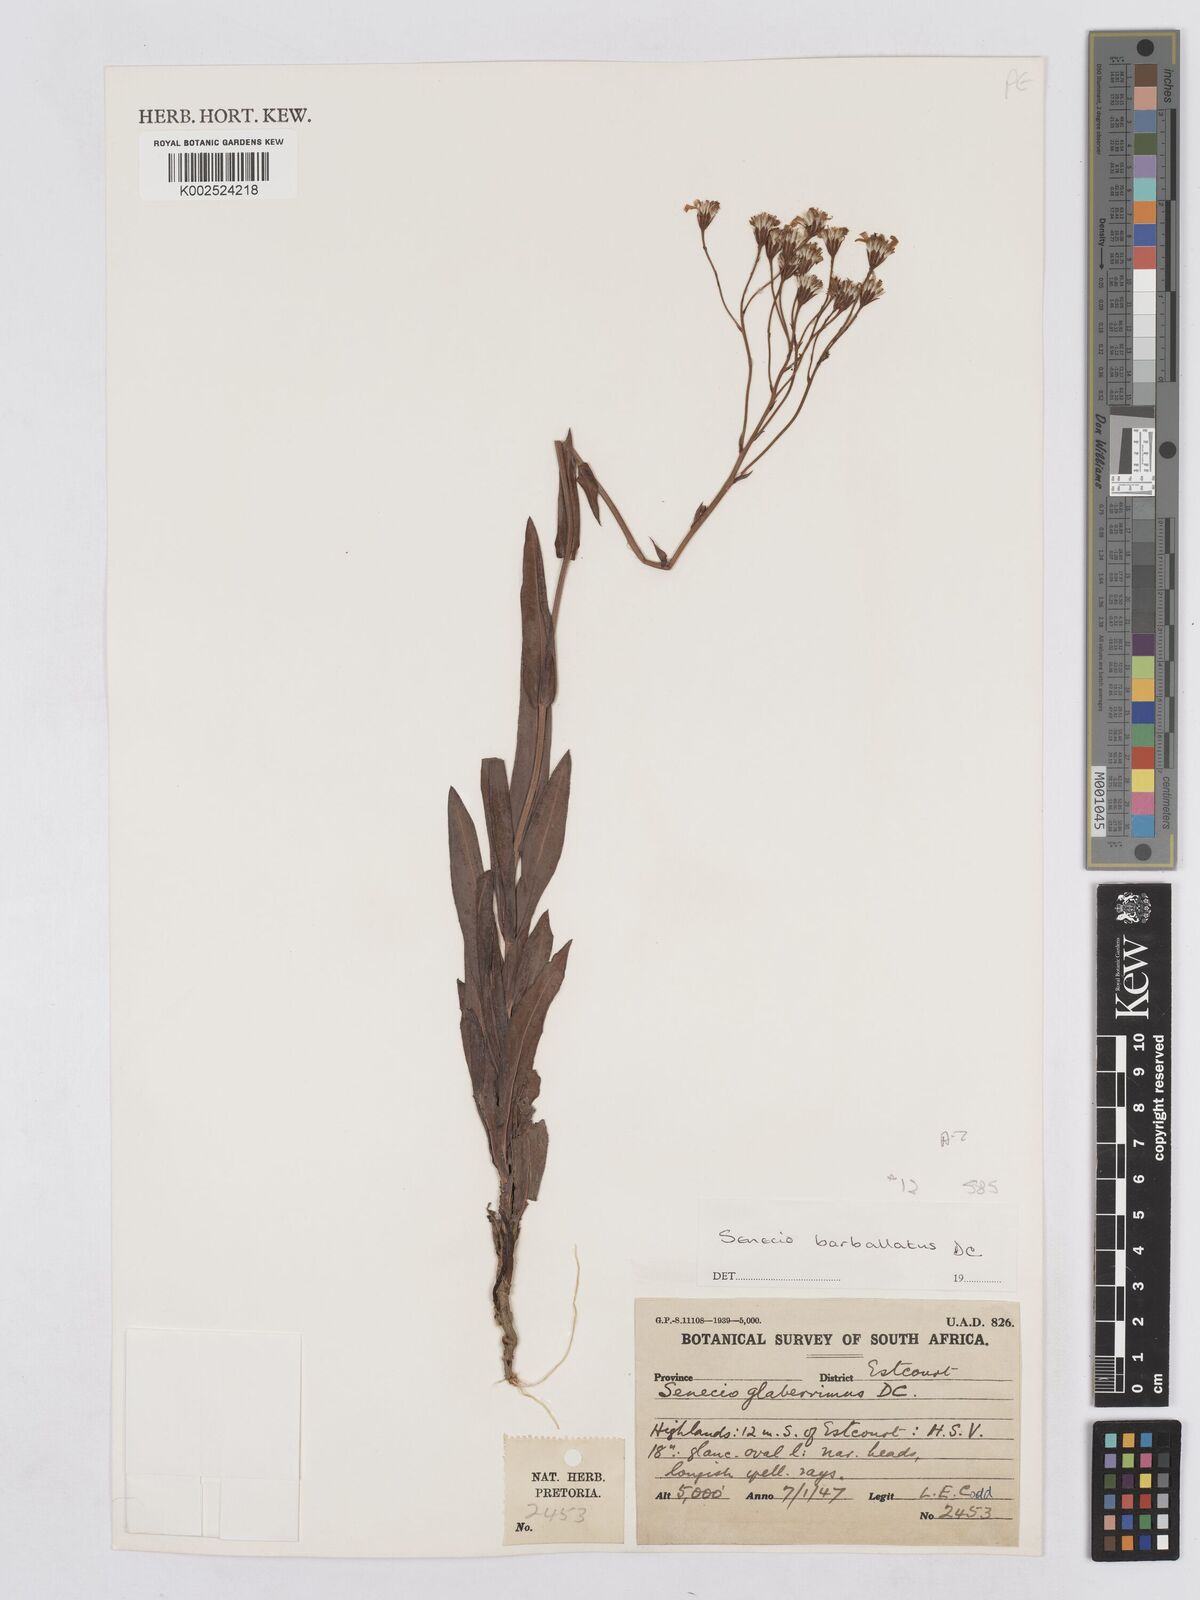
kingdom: Plantae
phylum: Tracheophyta
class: Magnoliopsida
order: Asterales
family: Asteraceae
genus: Senecio
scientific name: Senecio retrorsus
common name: Ragwort
